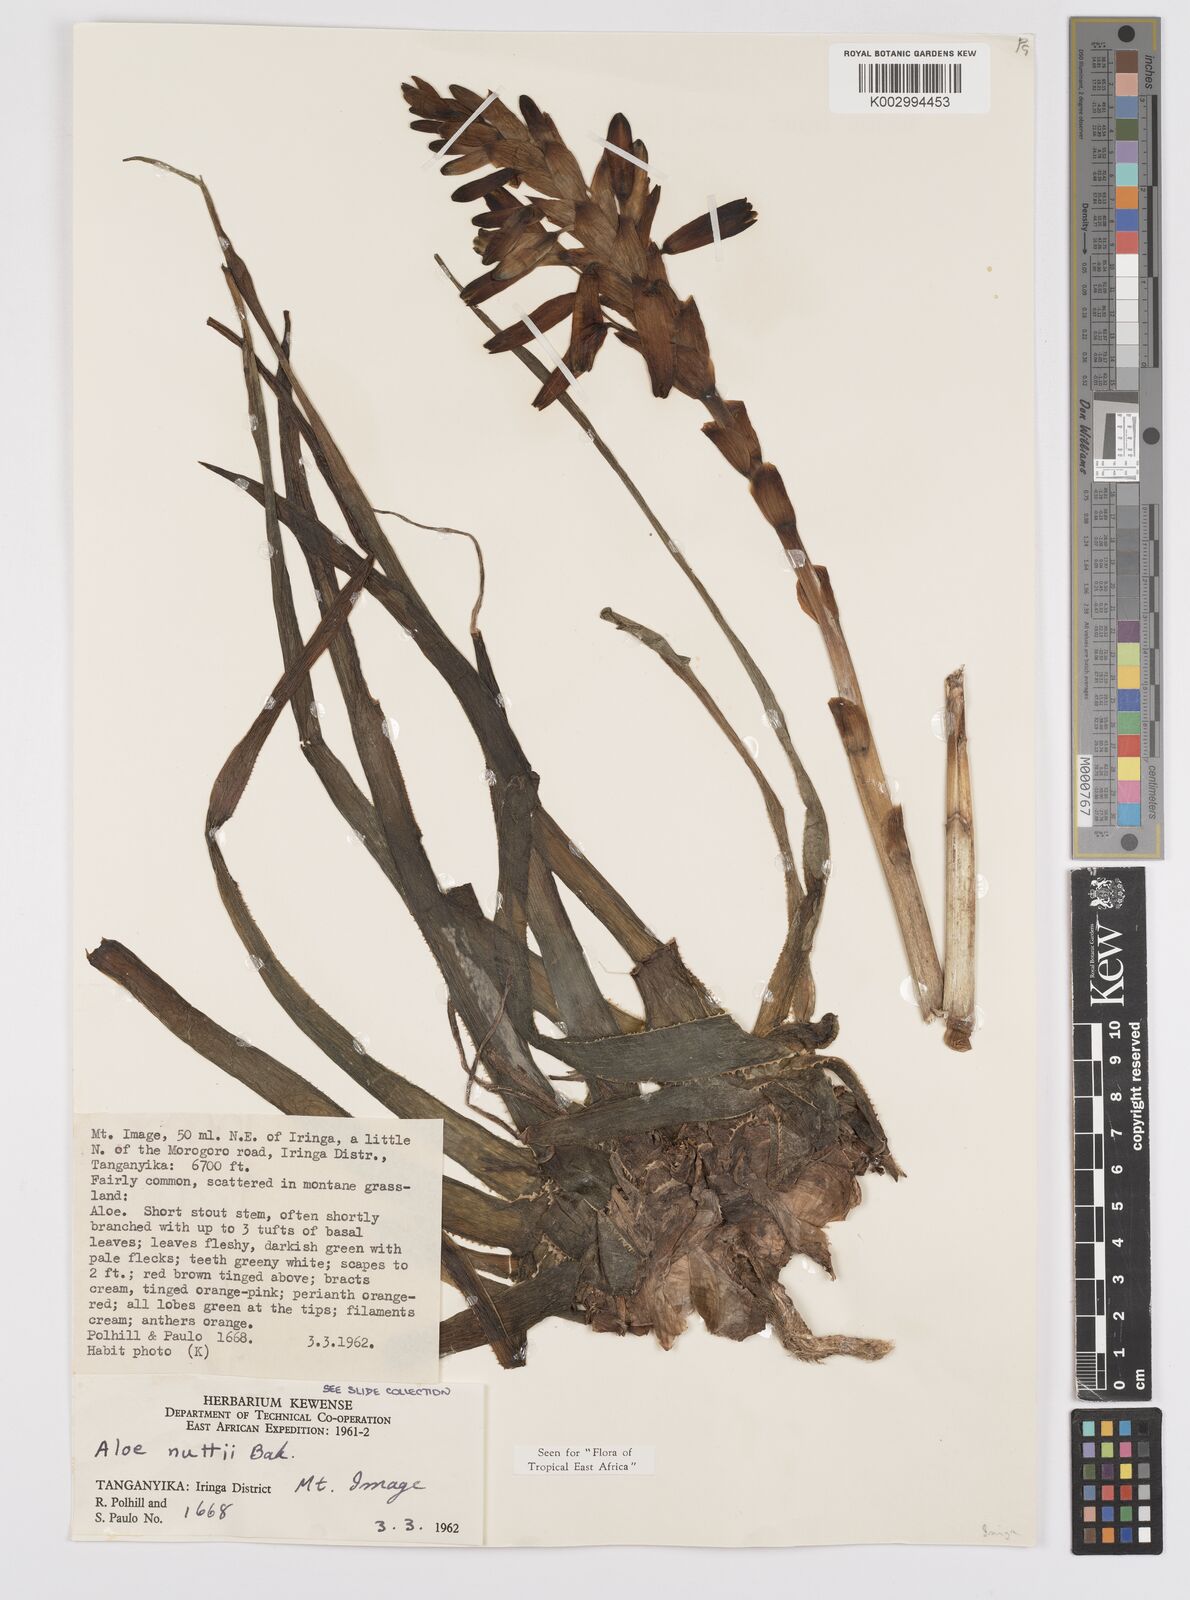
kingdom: Plantae
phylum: Tracheophyta
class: Liliopsida
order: Asparagales
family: Asphodelaceae
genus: Aloe
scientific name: Aloe nuttii
